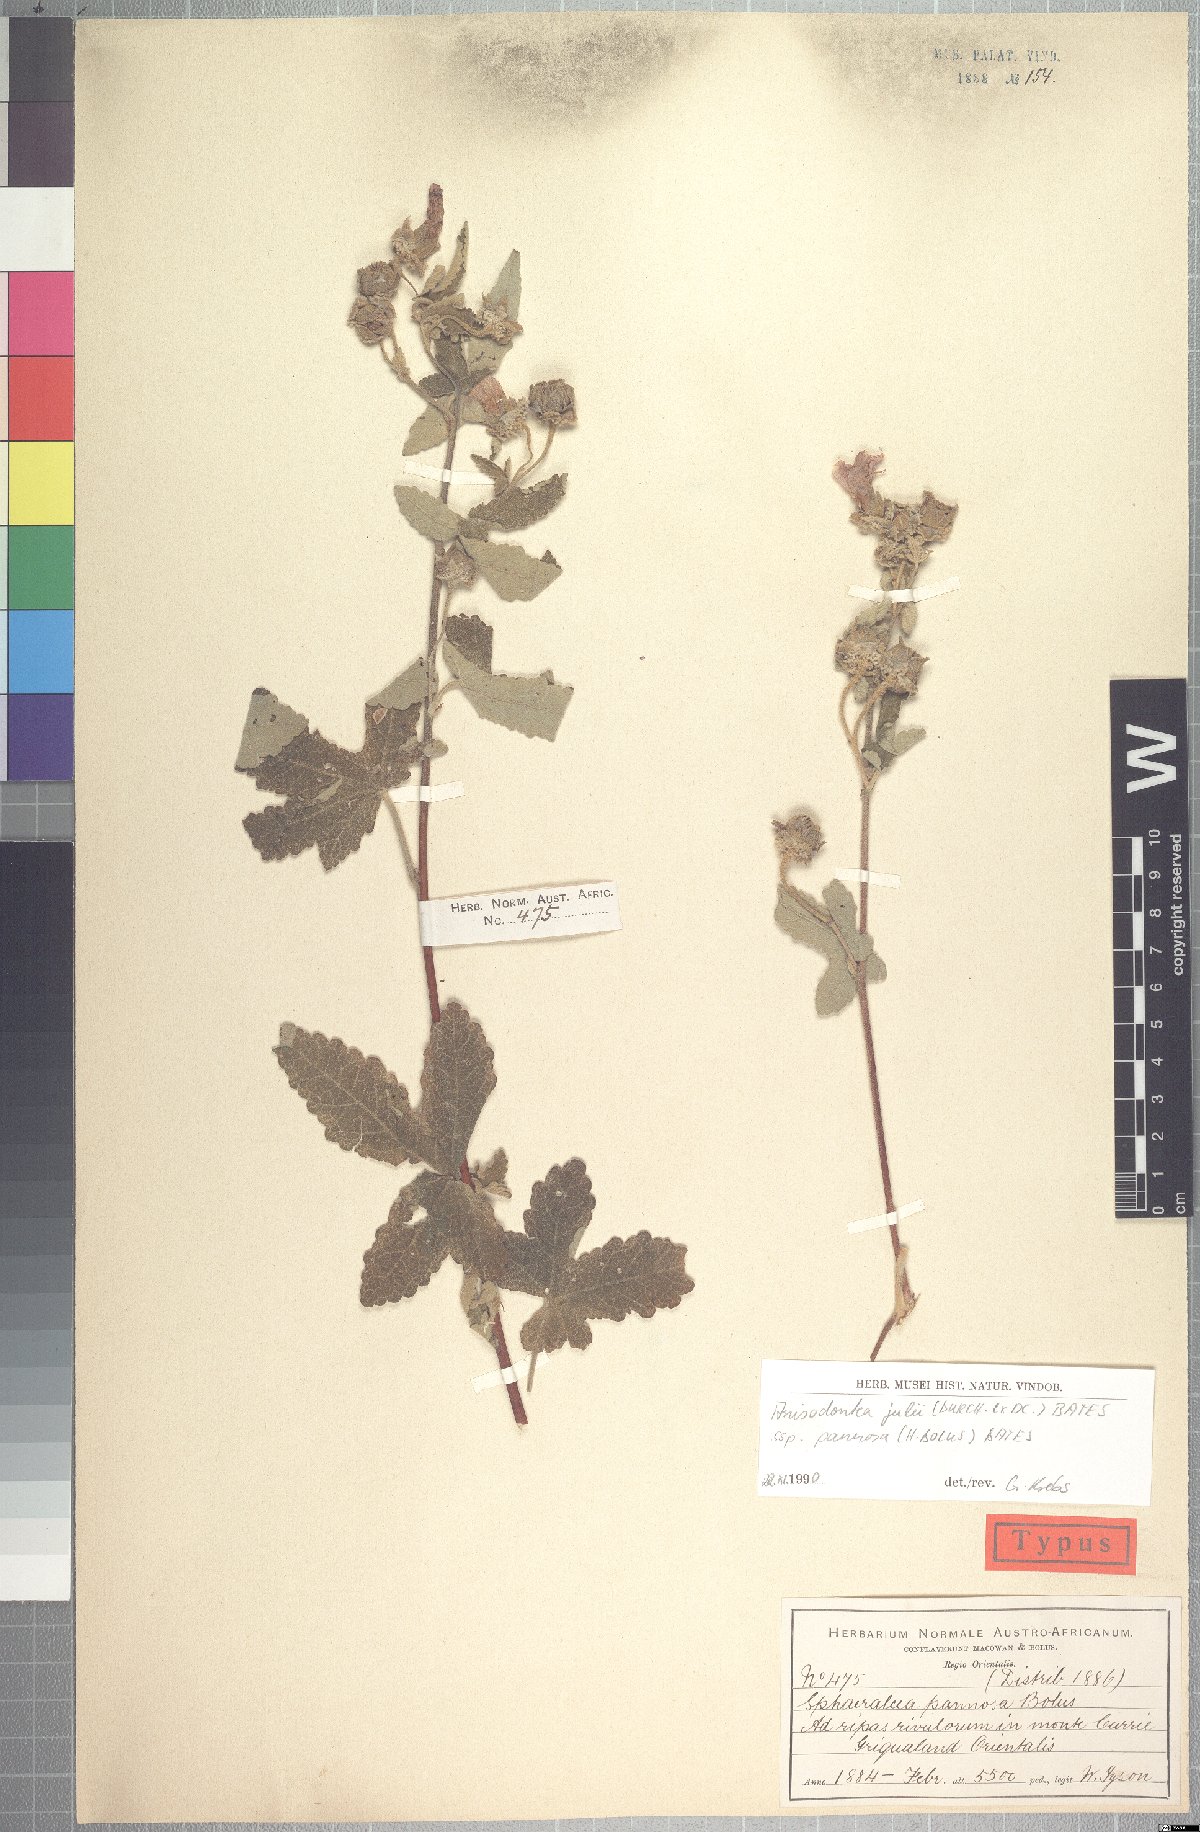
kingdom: Plantae
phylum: Tracheophyta
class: Magnoliopsida
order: Malvales
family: Malvaceae
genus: Anisodontea
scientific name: Anisodontea julii
